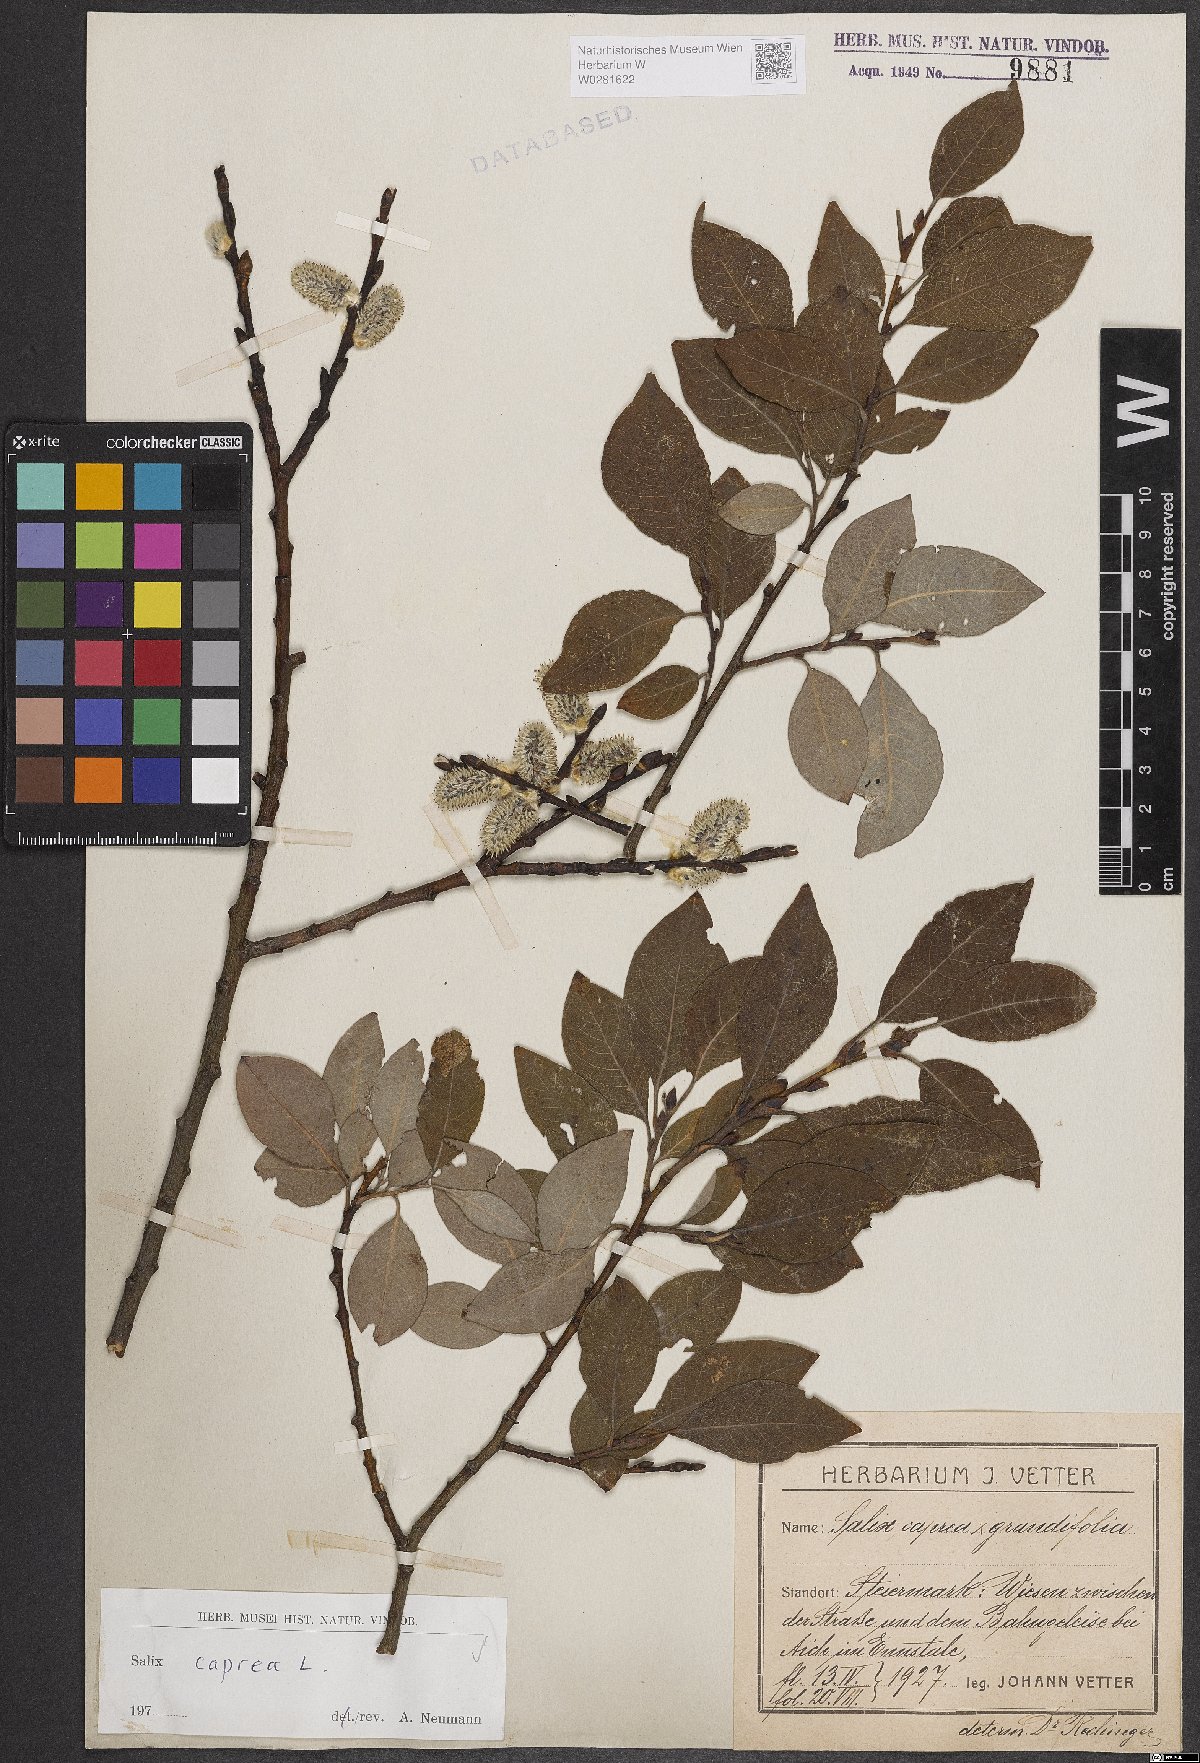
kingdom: Plantae
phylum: Tracheophyta
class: Magnoliopsida
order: Malpighiales
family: Salicaceae
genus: Salix
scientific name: Salix caprea
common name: Goat willow
